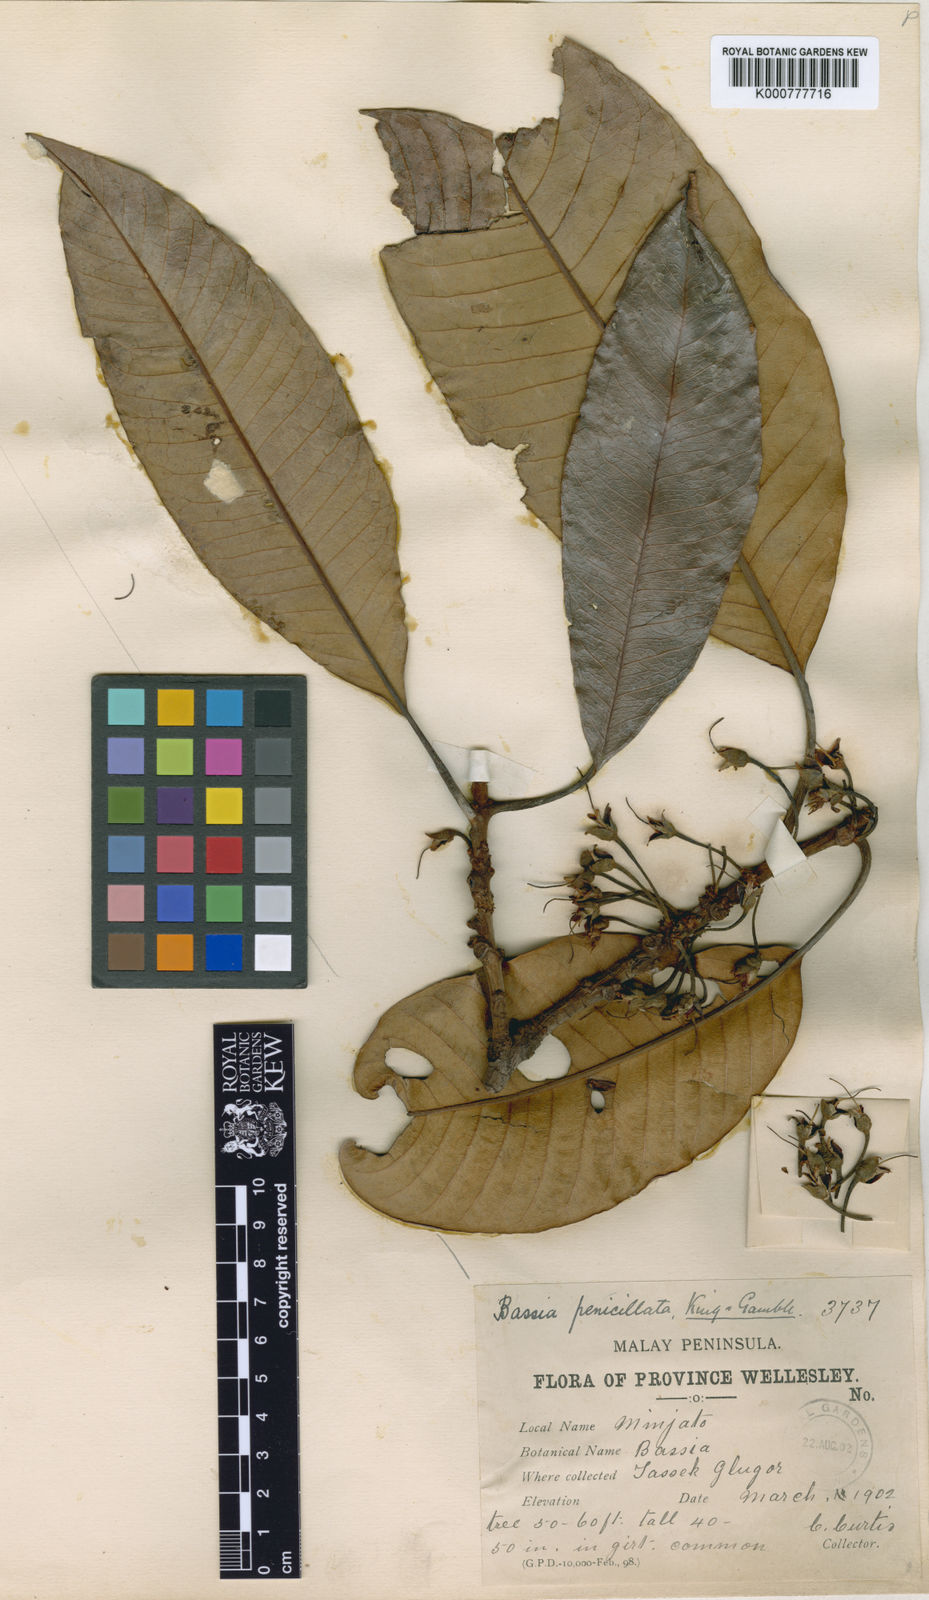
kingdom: Plantae
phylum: Tracheophyta
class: Magnoliopsida
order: Ericales
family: Sapotaceae
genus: Madhuca
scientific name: Madhuca penicillata
